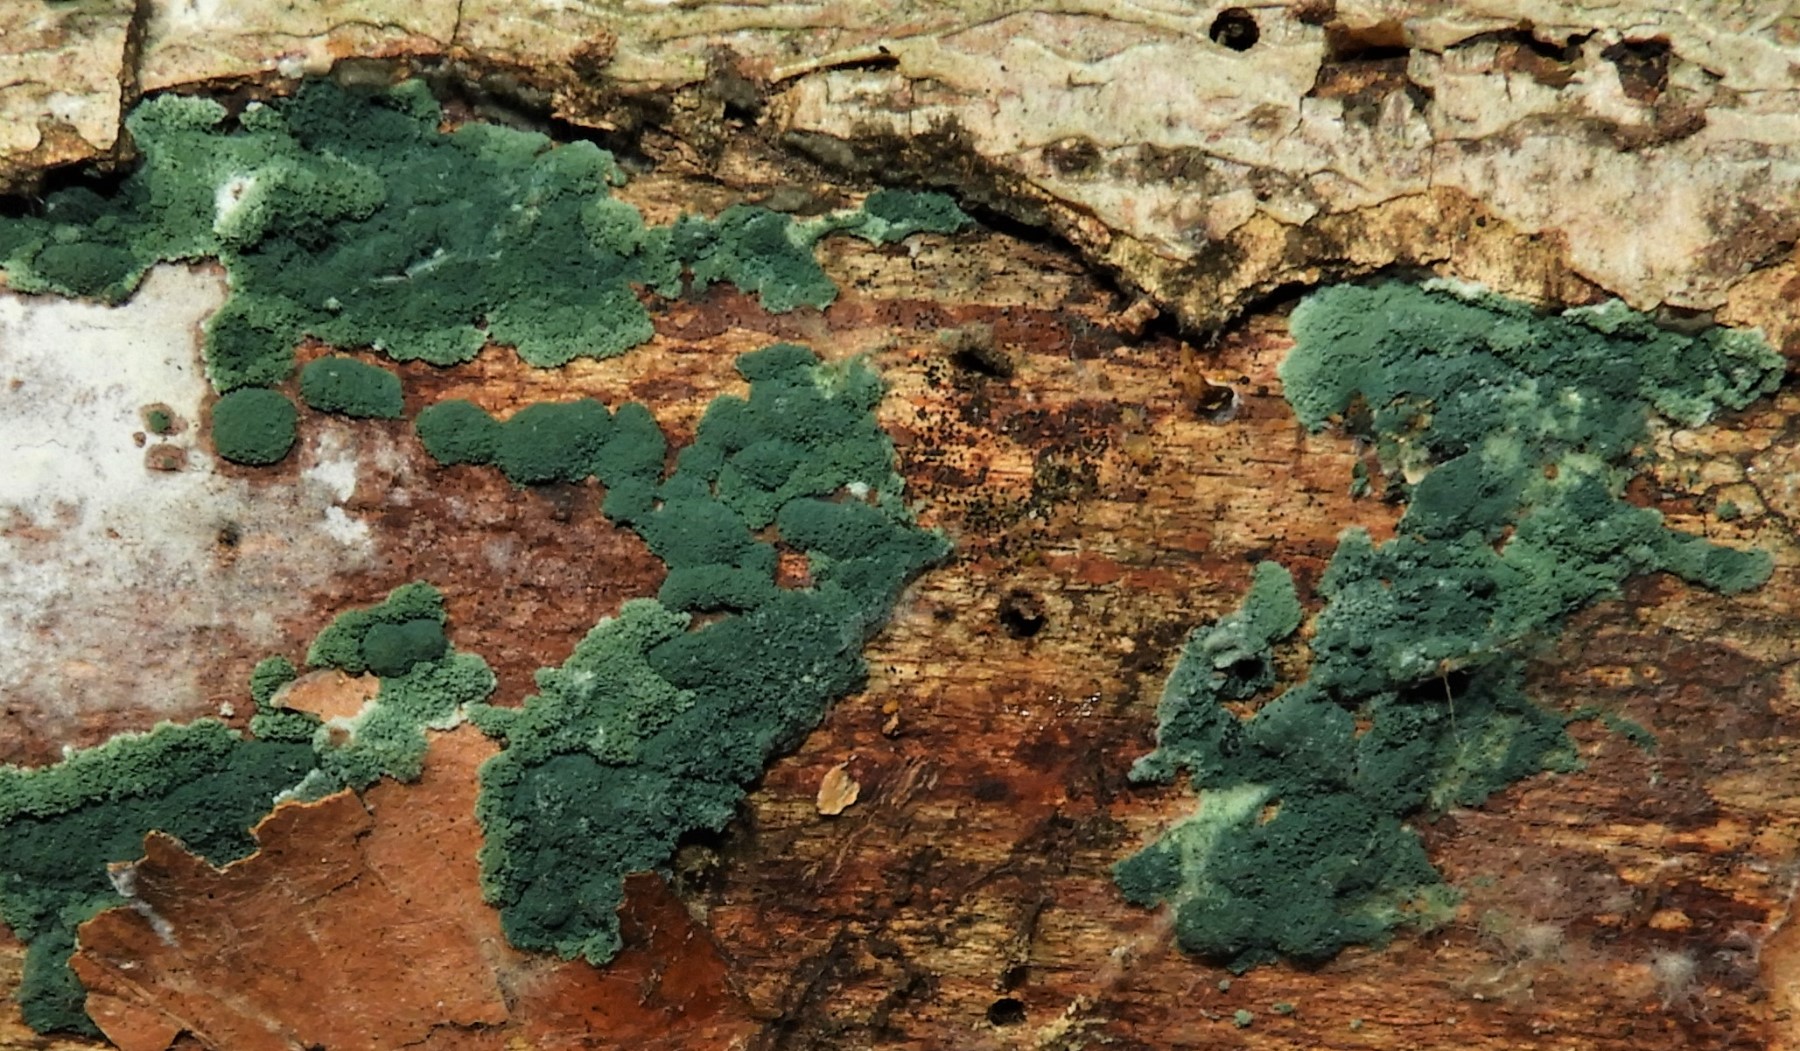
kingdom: Fungi
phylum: Ascomycota
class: Sordariomycetes
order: Hypocreales
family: Hypocreaceae
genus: Trichoderma
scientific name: Trichoderma
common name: kødkerne
